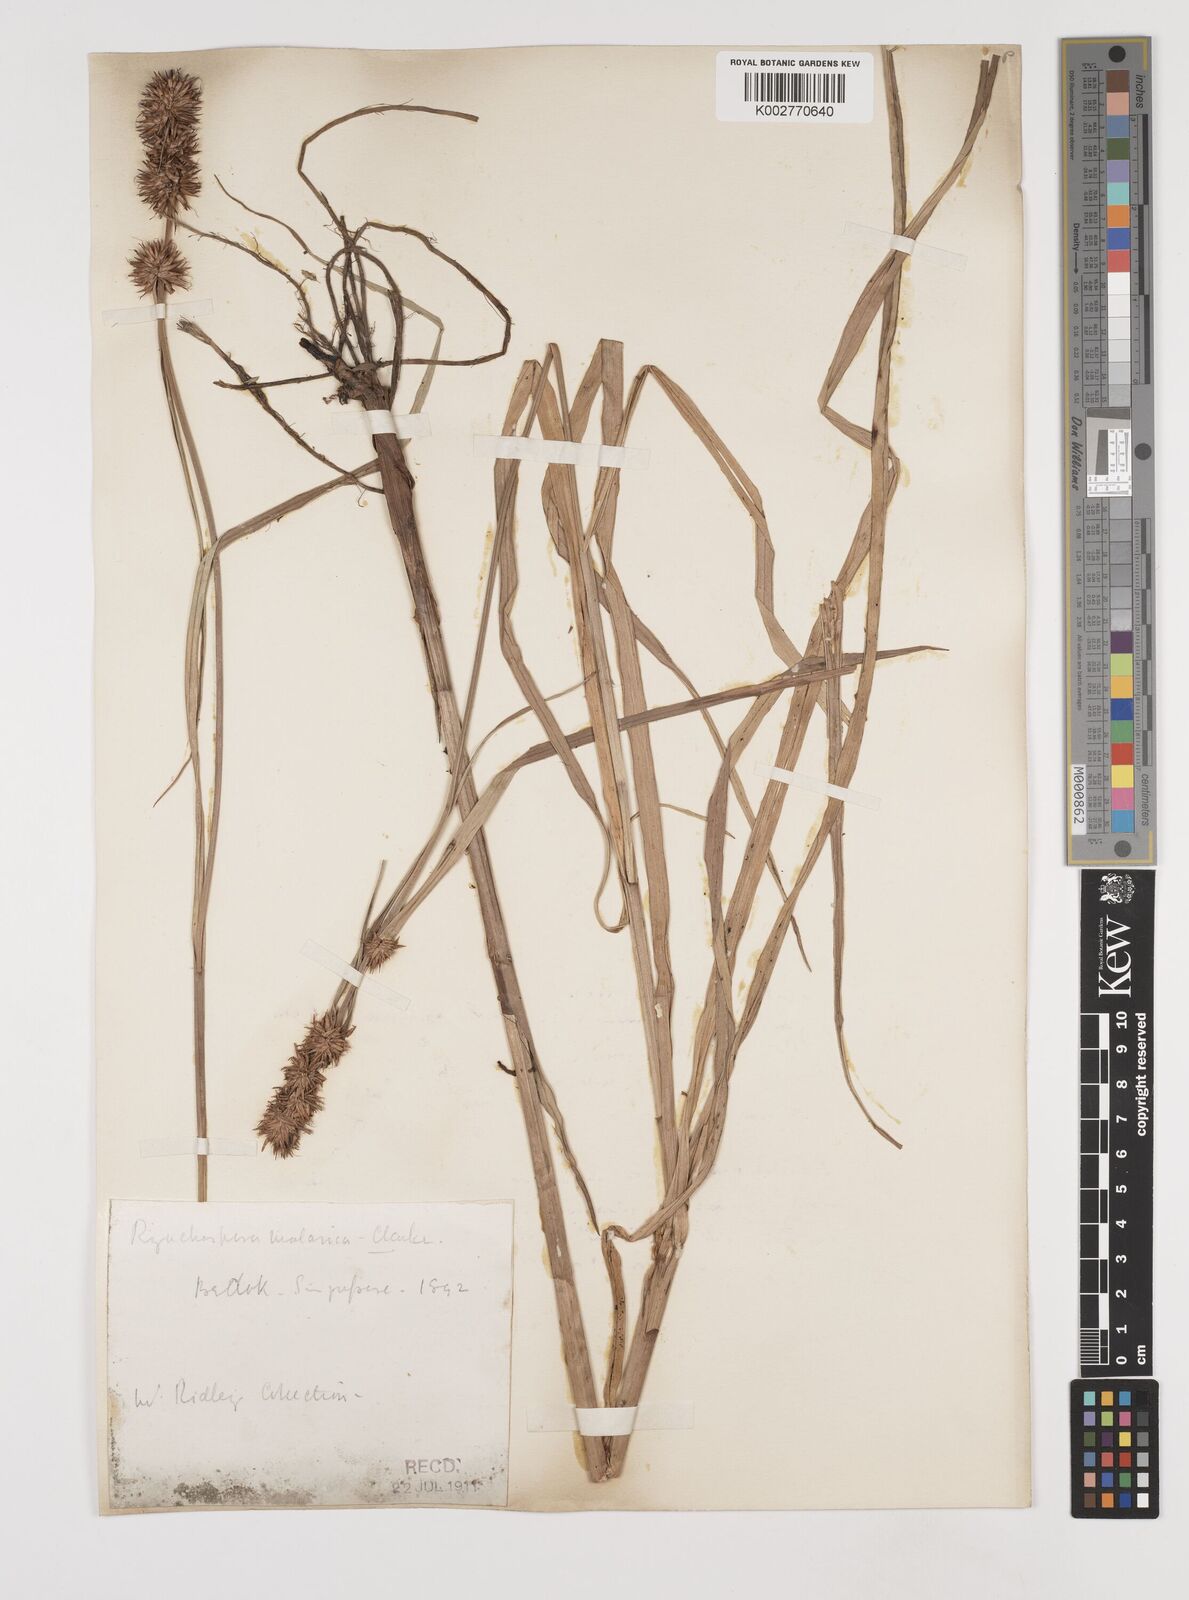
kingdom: Plantae
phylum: Tracheophyta
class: Liliopsida
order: Poales
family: Cyperaceae
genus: Rhynchospora
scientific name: Rhynchospora malasica
